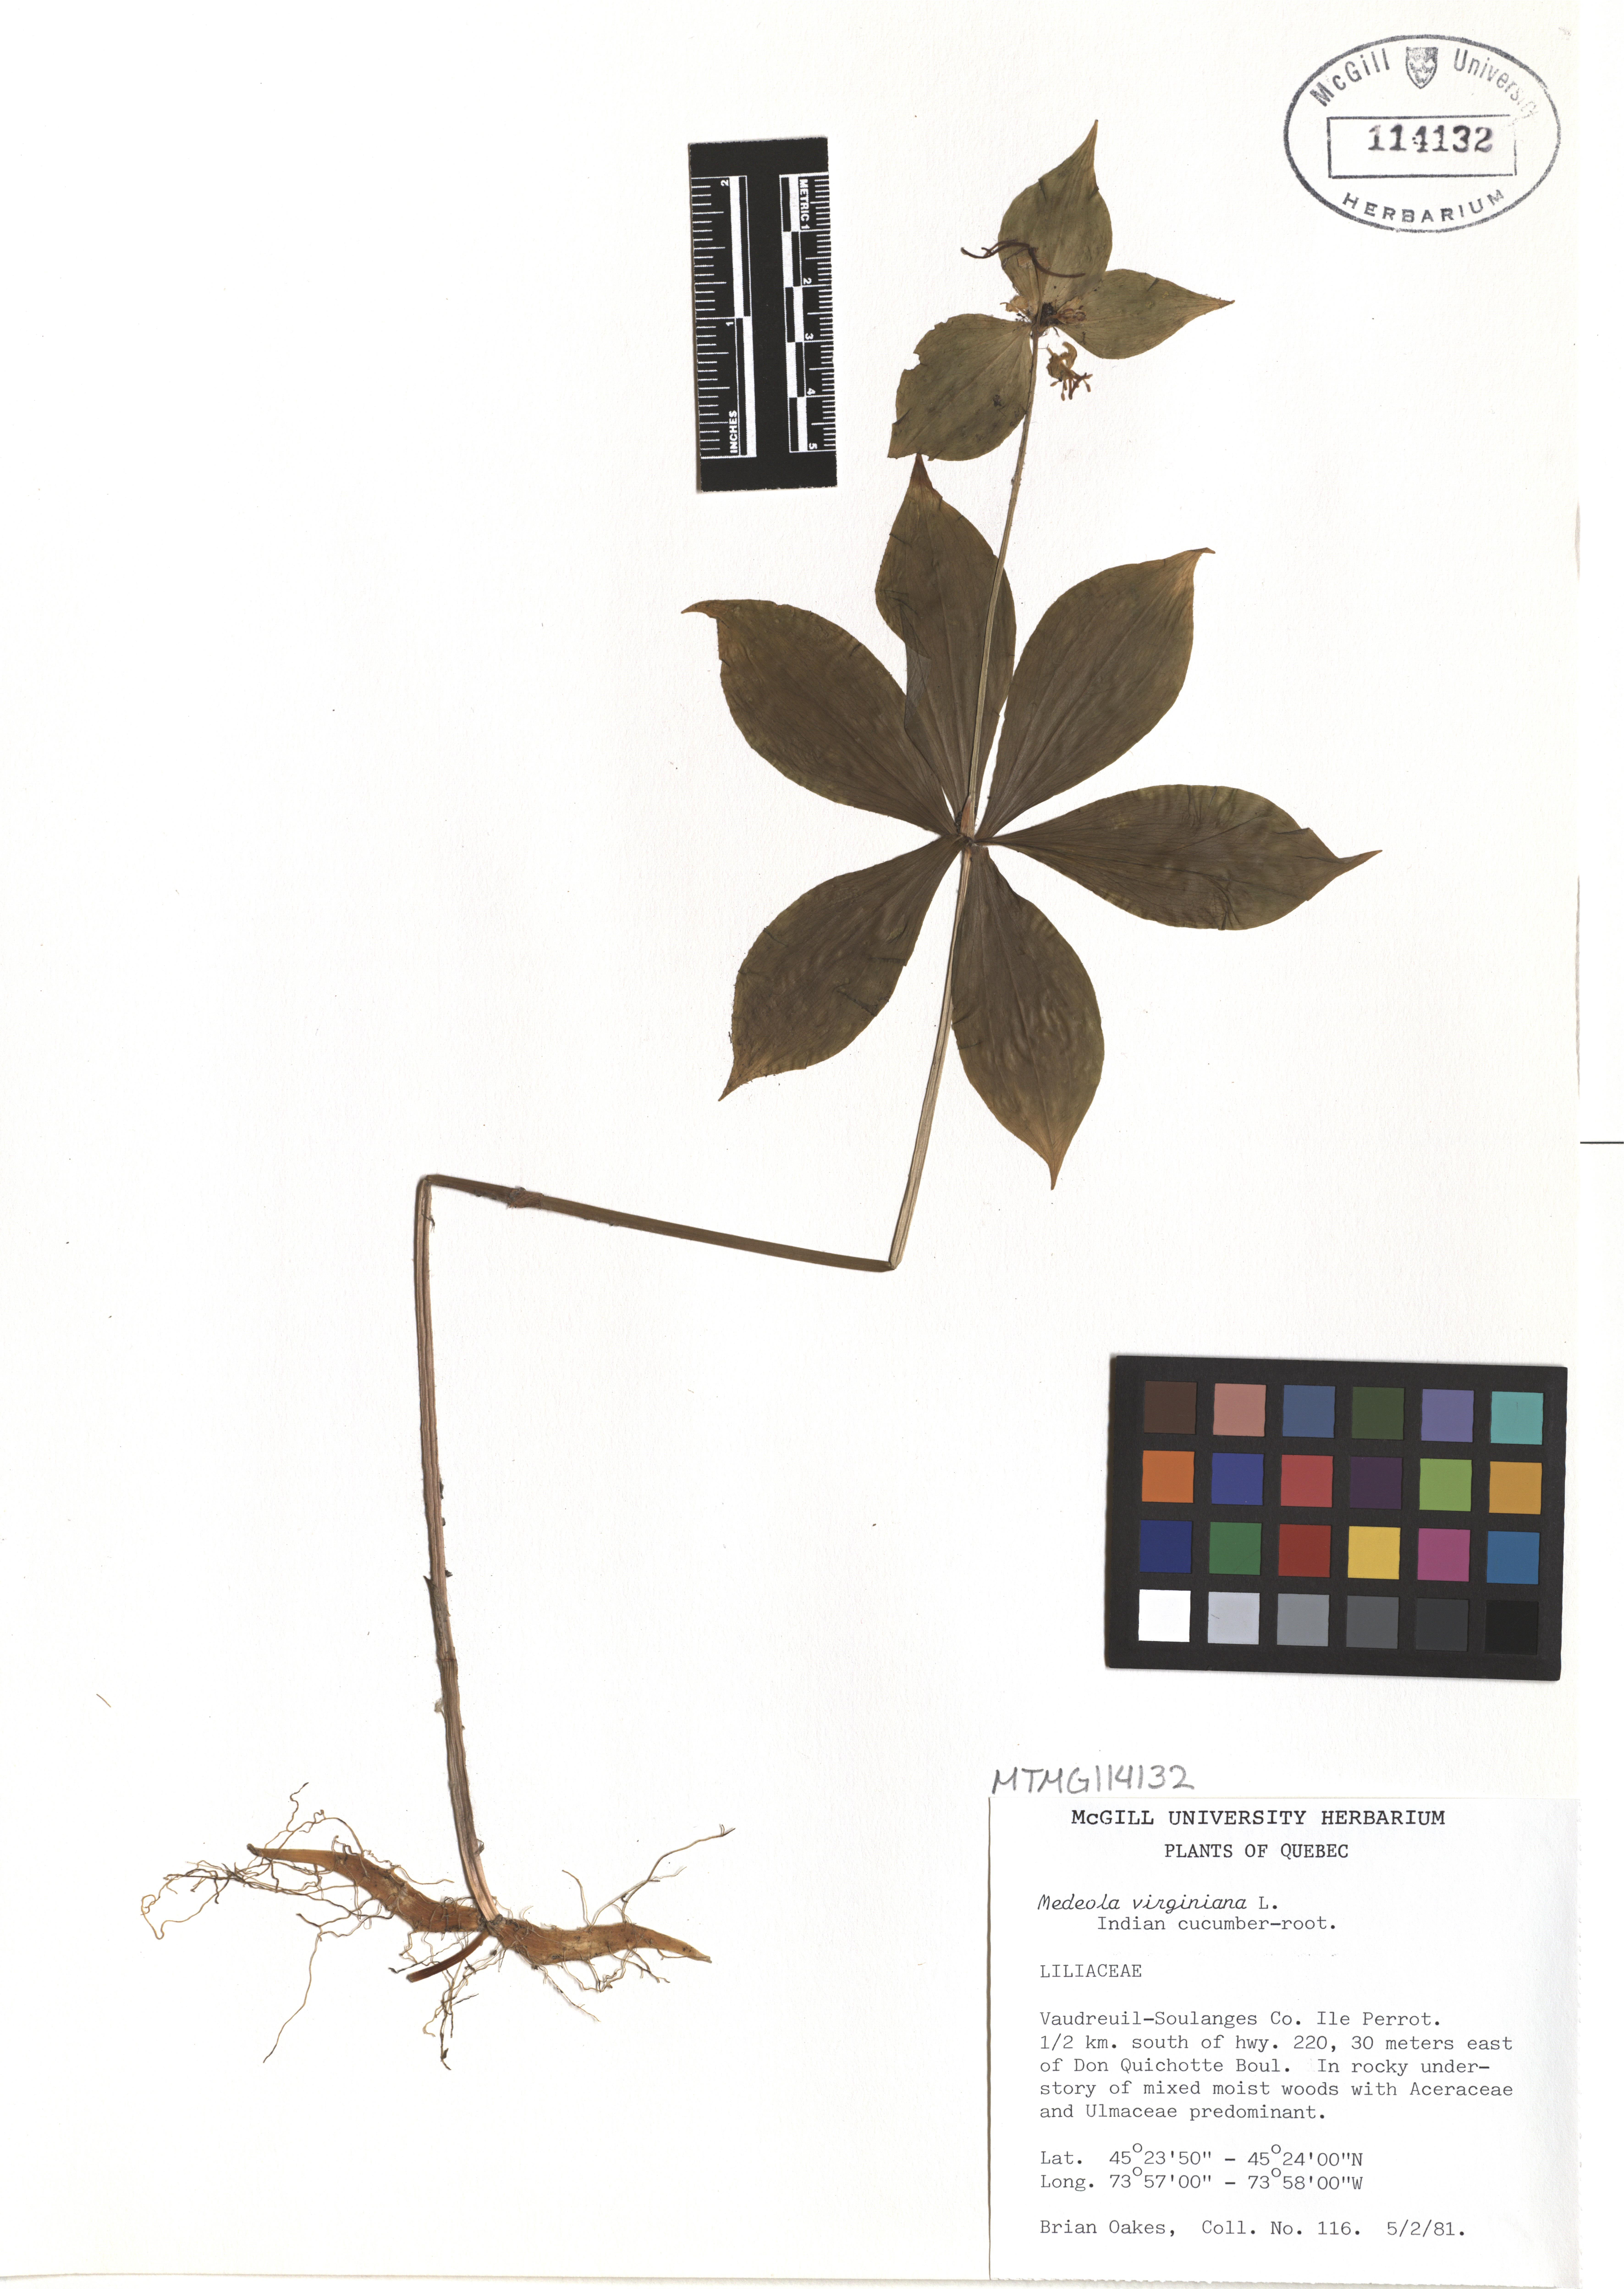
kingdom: Plantae
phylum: Tracheophyta
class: Liliopsida
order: Liliales
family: Liliaceae
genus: Medeola
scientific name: Medeola virginiana
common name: Indian cucumber-root
